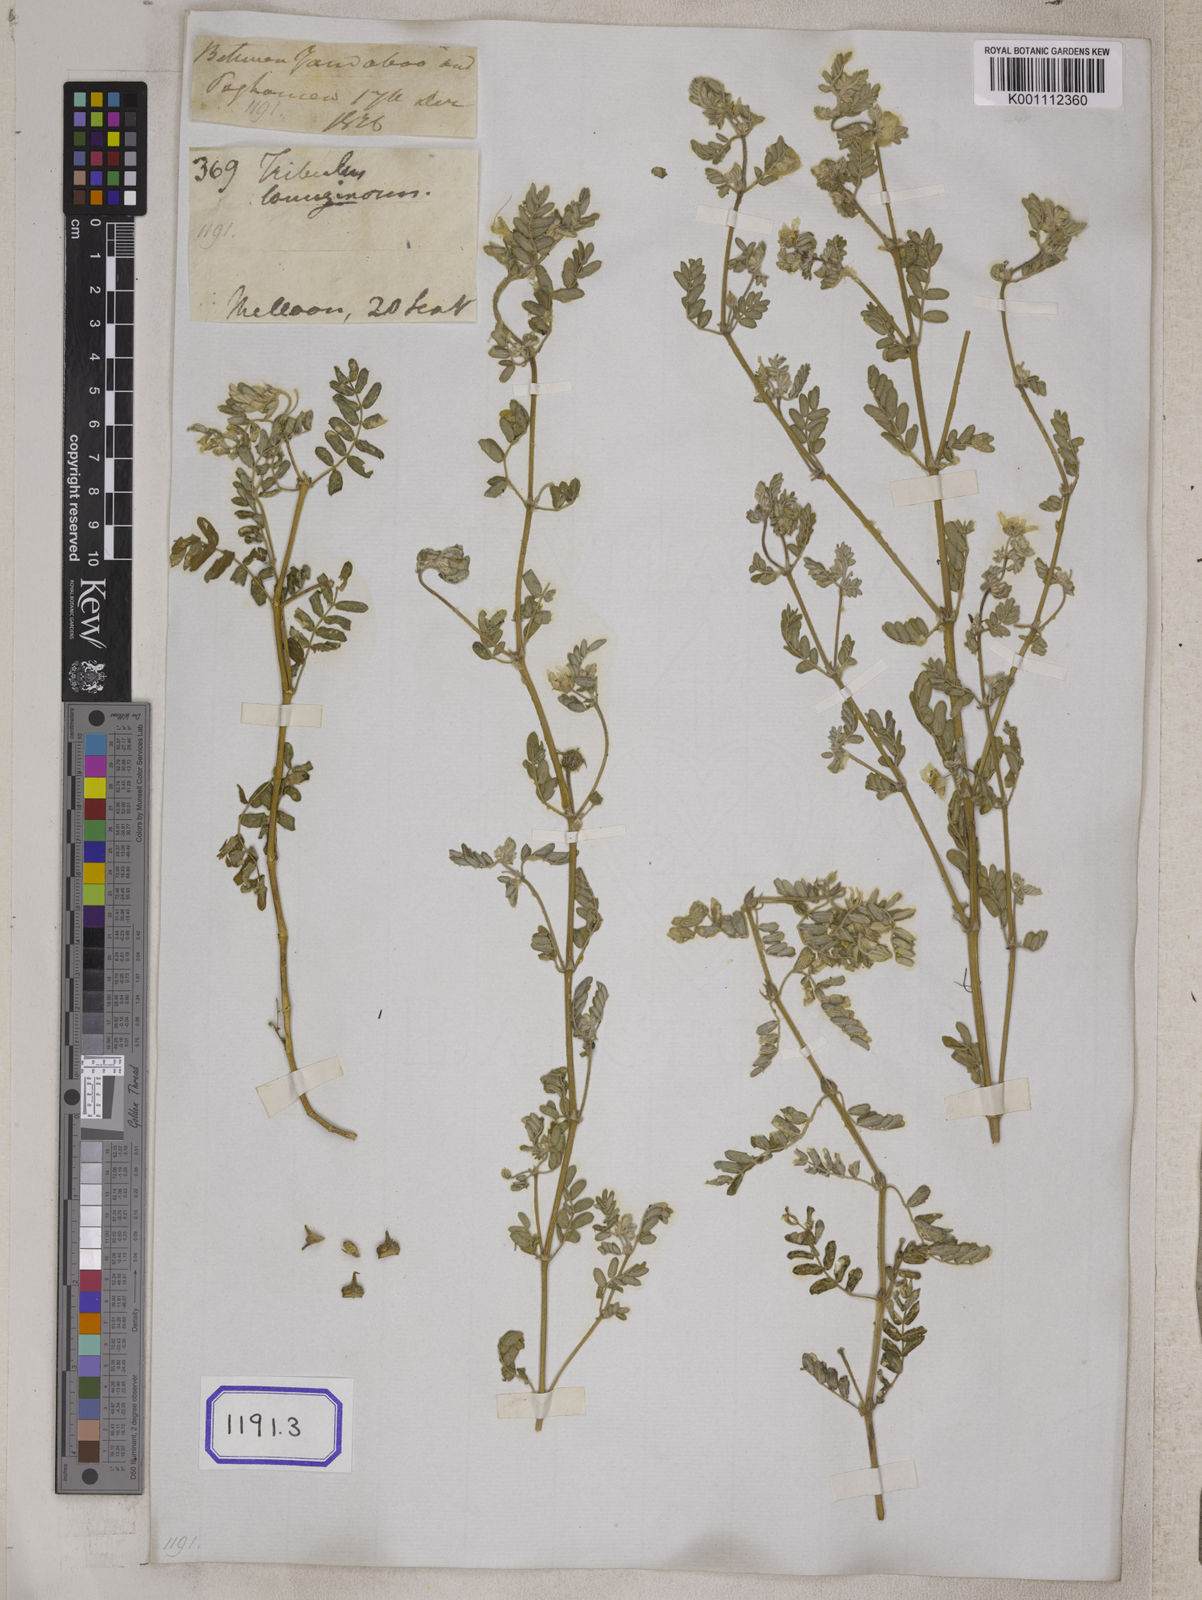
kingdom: Plantae
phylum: Tracheophyta
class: Magnoliopsida
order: Zygophyllales
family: Zygophyllaceae
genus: Tribulus
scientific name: Tribulus terrestris
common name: Puncturevine
